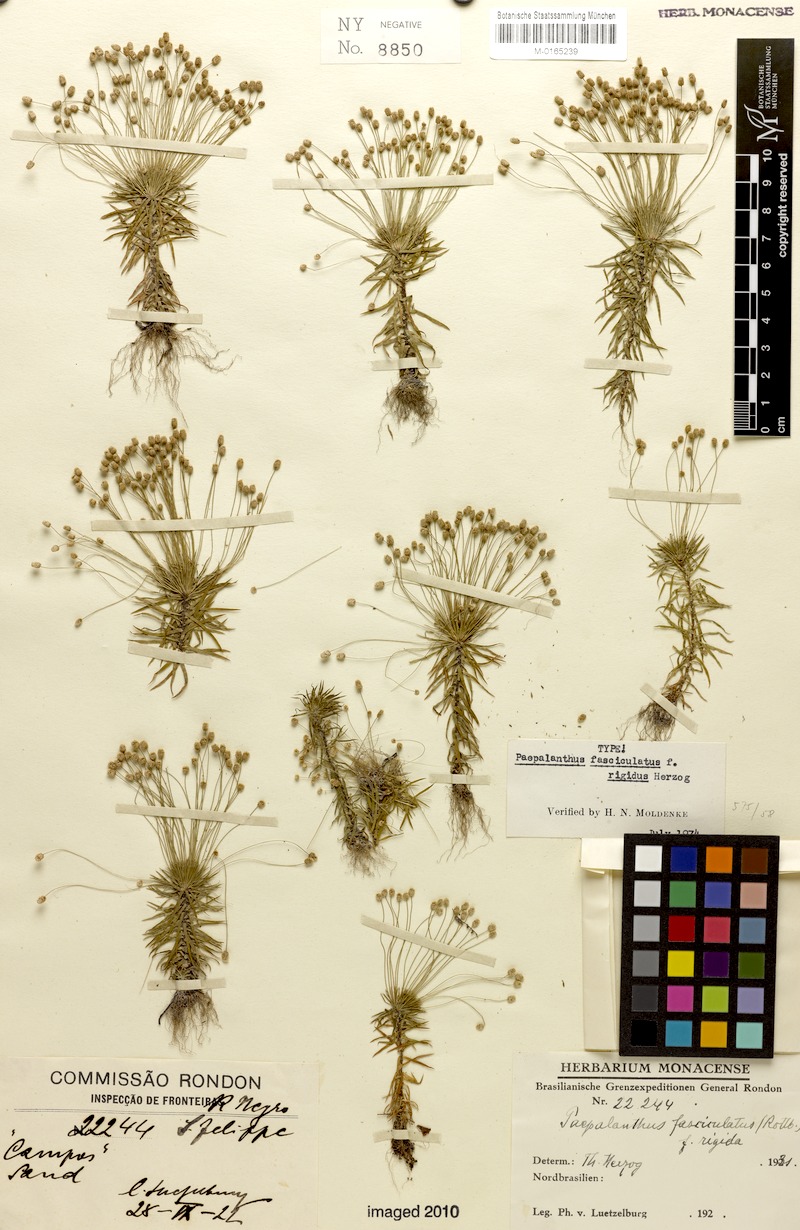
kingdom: Plantae
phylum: Tracheophyta
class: Liliopsida
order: Poales
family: Eriocaulaceae
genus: Paepalanthus
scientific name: Paepalanthus fasciculatus
